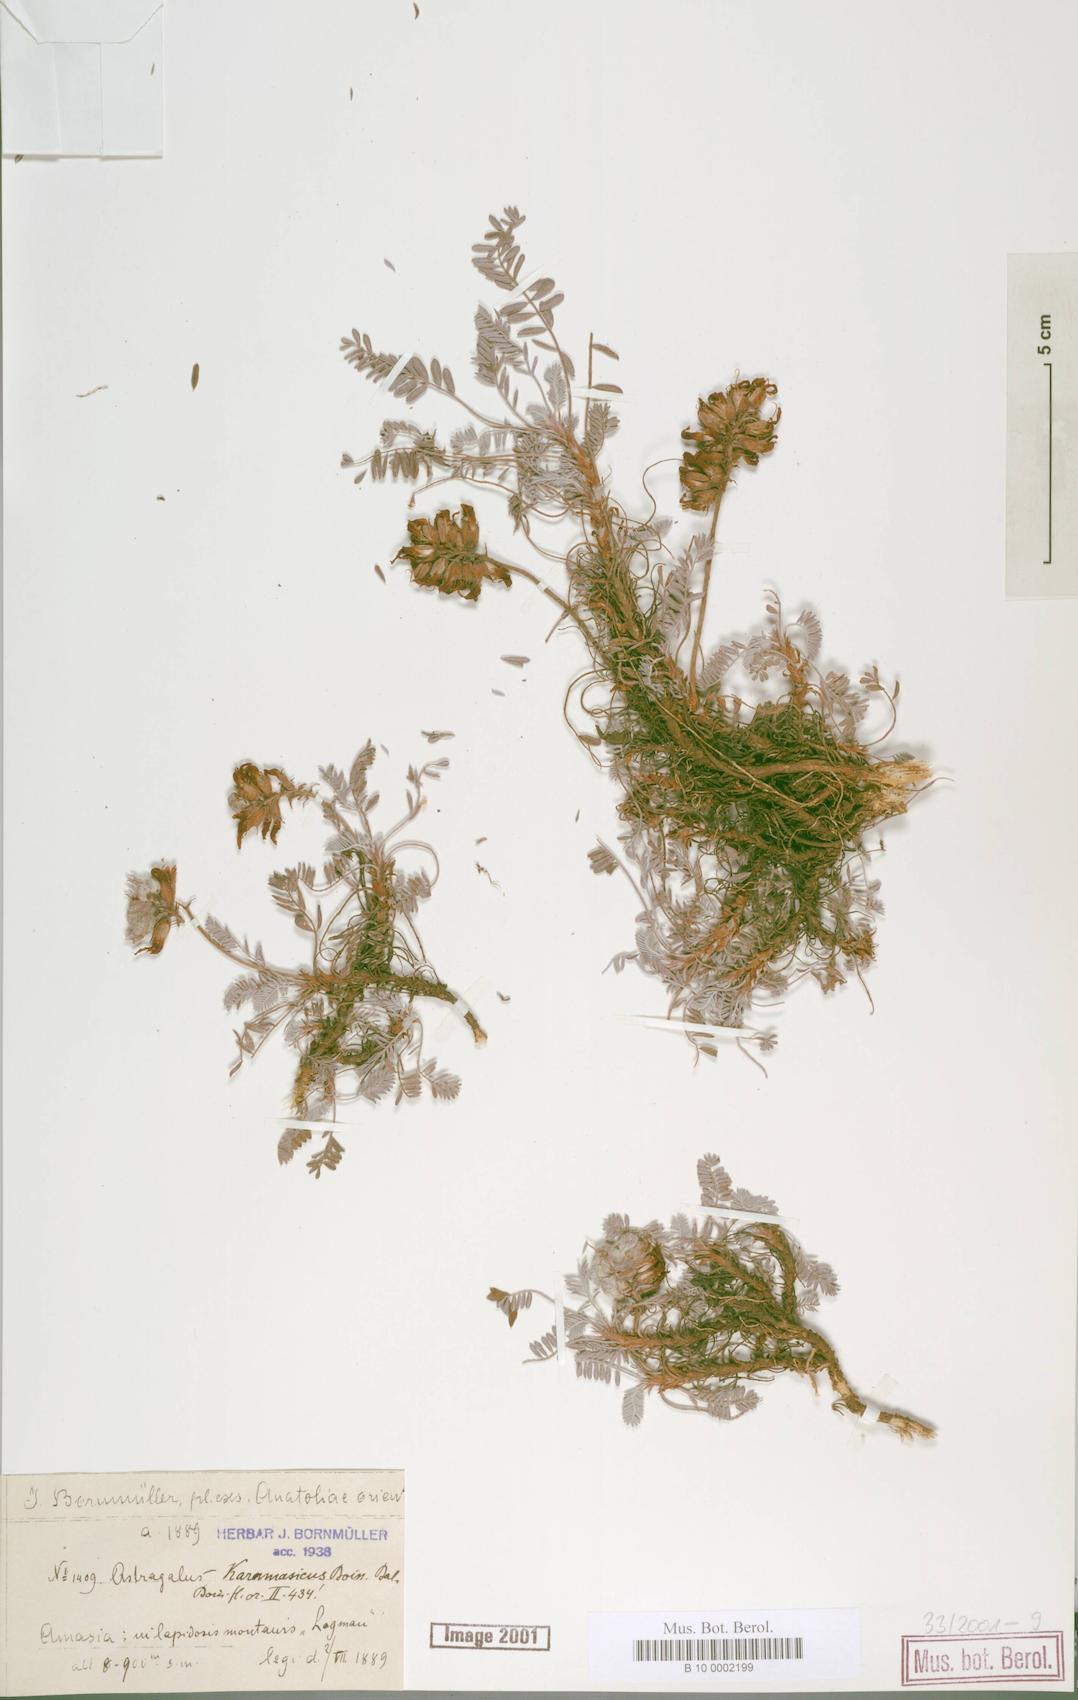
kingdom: Plantae
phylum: Tracheophyta
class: Magnoliopsida
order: Fabales
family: Fabaceae
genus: Astragalus
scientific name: Astragalus karamasicus
